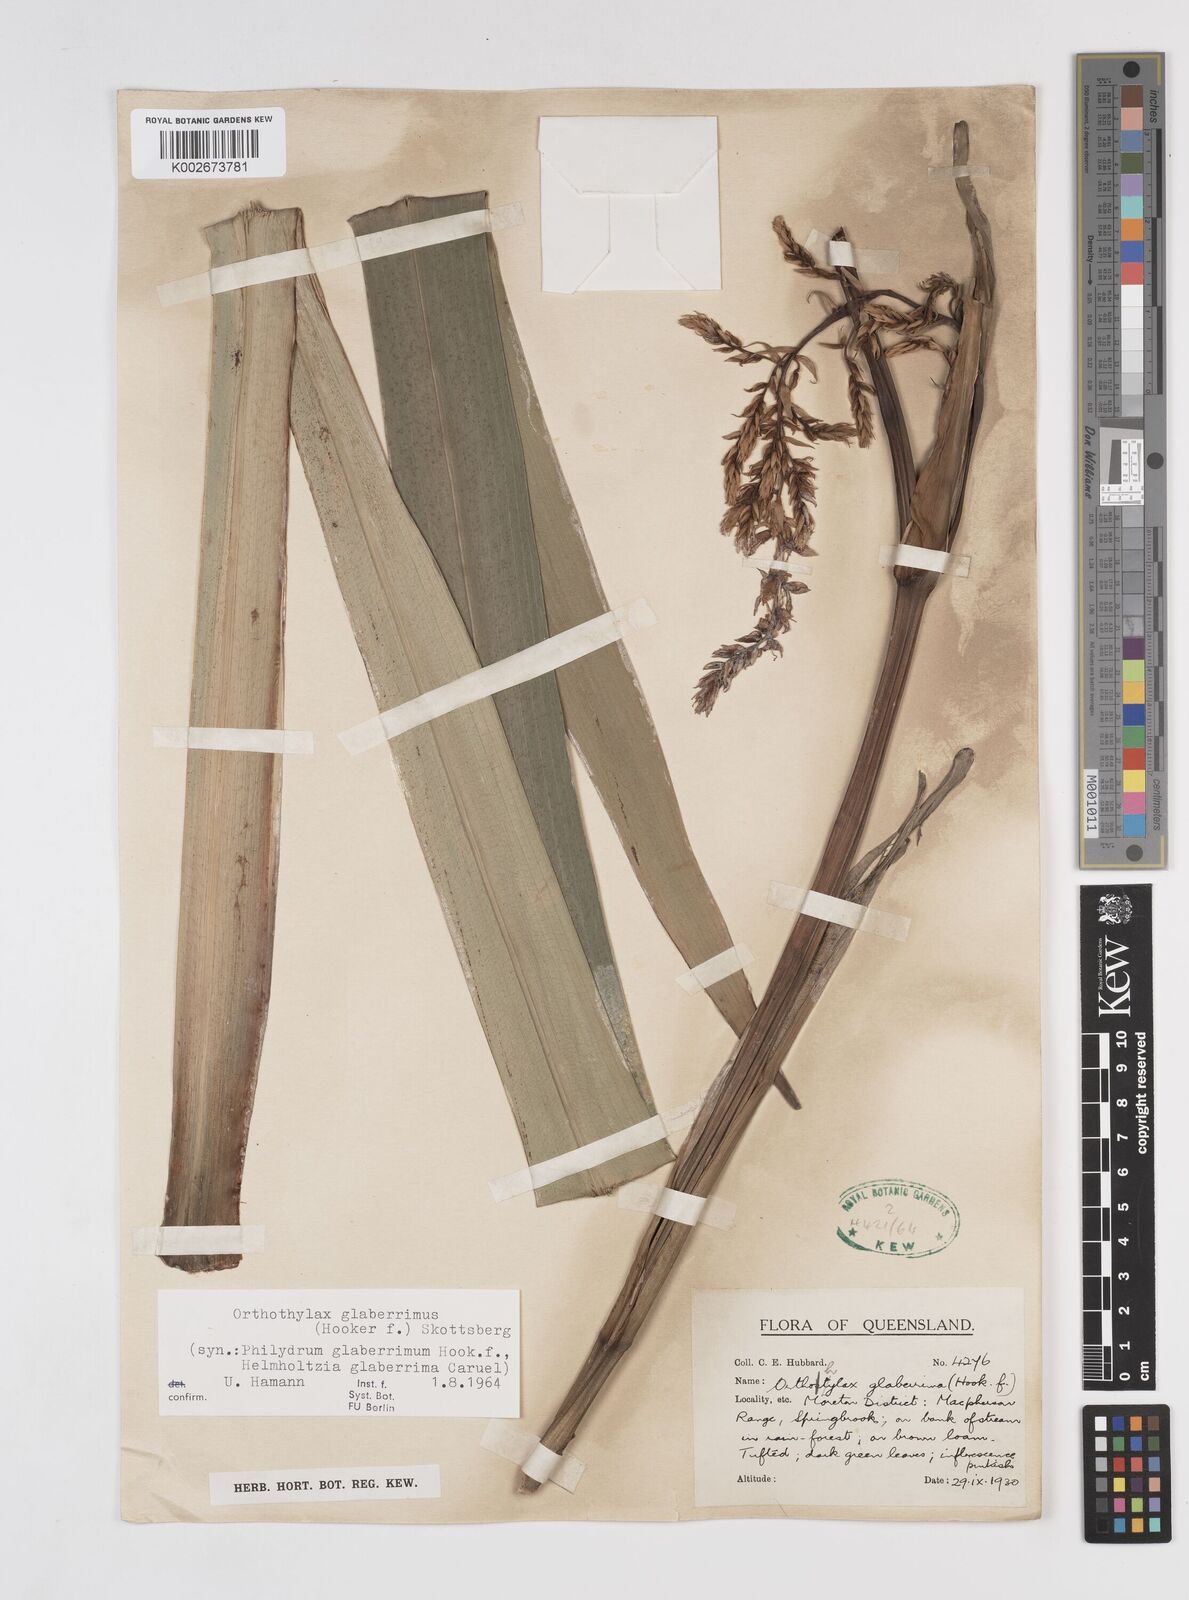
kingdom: Plantae
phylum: Tracheophyta
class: Liliopsida
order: Commelinales
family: Philydraceae
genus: Helmholtzia
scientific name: Helmholtzia glaberrima
